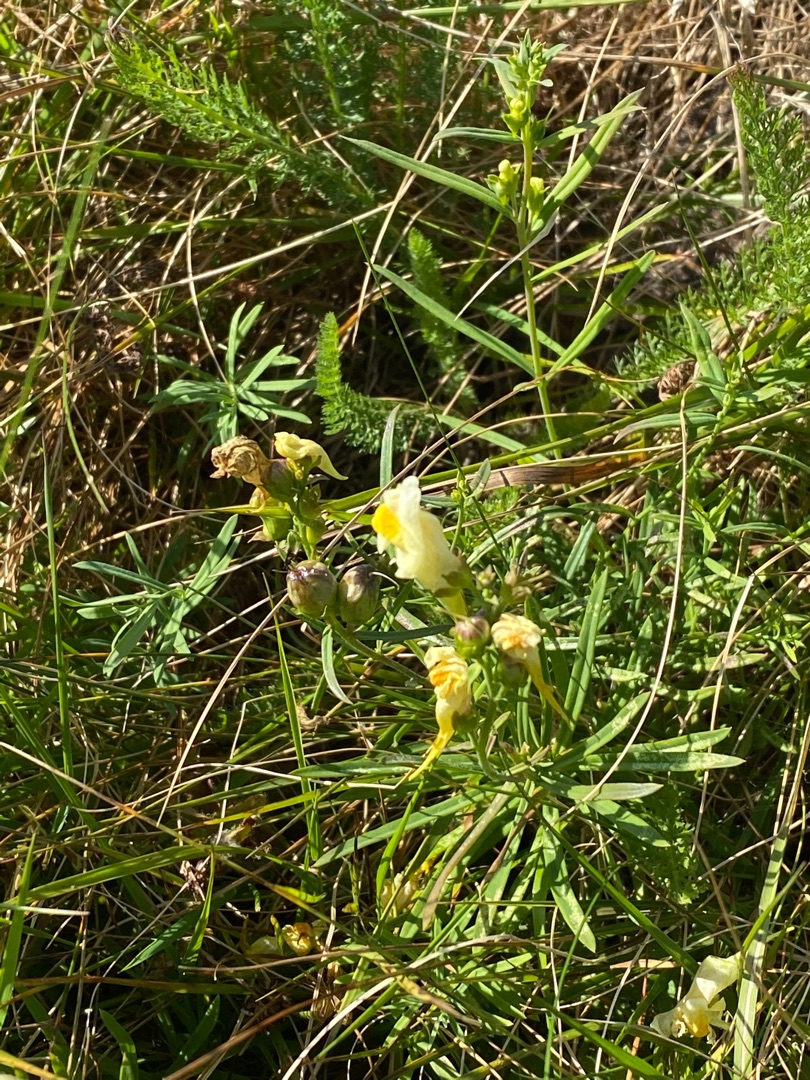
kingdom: Plantae
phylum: Tracheophyta
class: Magnoliopsida
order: Lamiales
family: Plantaginaceae
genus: Linaria
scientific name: Linaria vulgaris
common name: Almindelig torskemund
